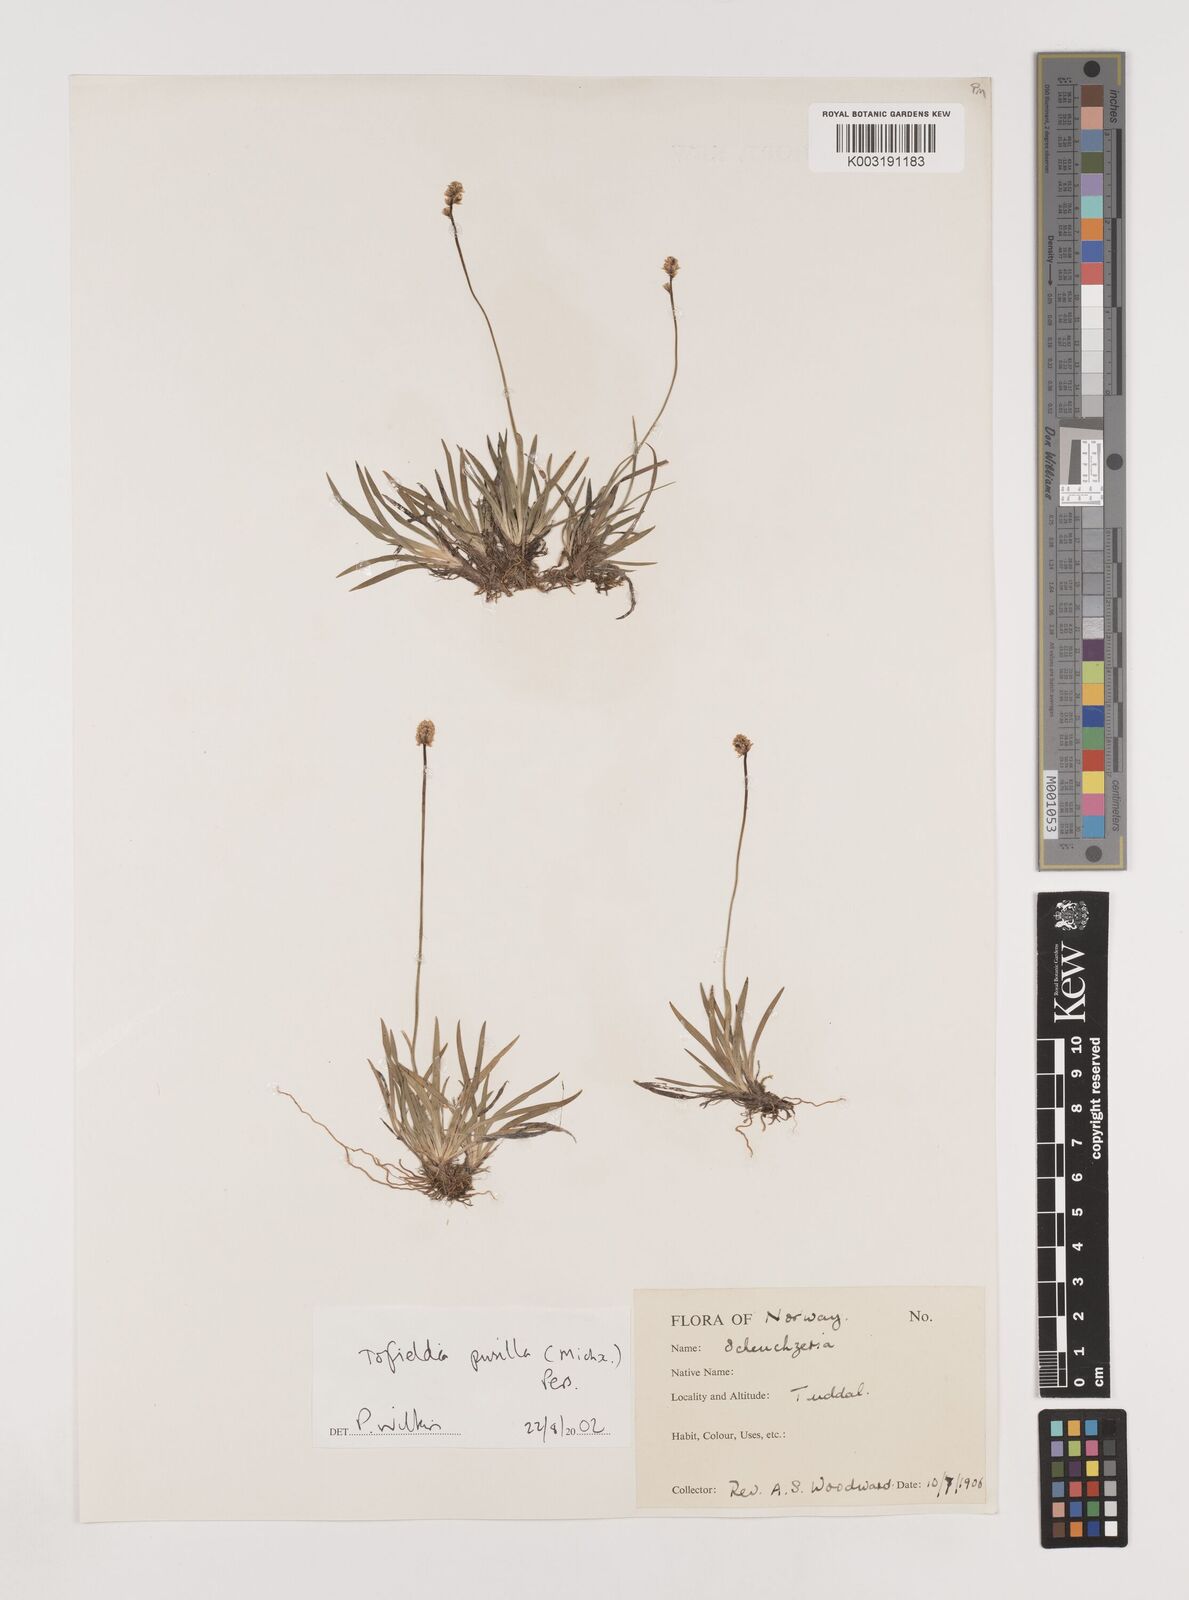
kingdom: Plantae
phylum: Tracheophyta
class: Liliopsida
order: Alismatales
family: Tofieldiaceae
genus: Tofieldia
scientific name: Tofieldia pusilla
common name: Scottish false asphodel
